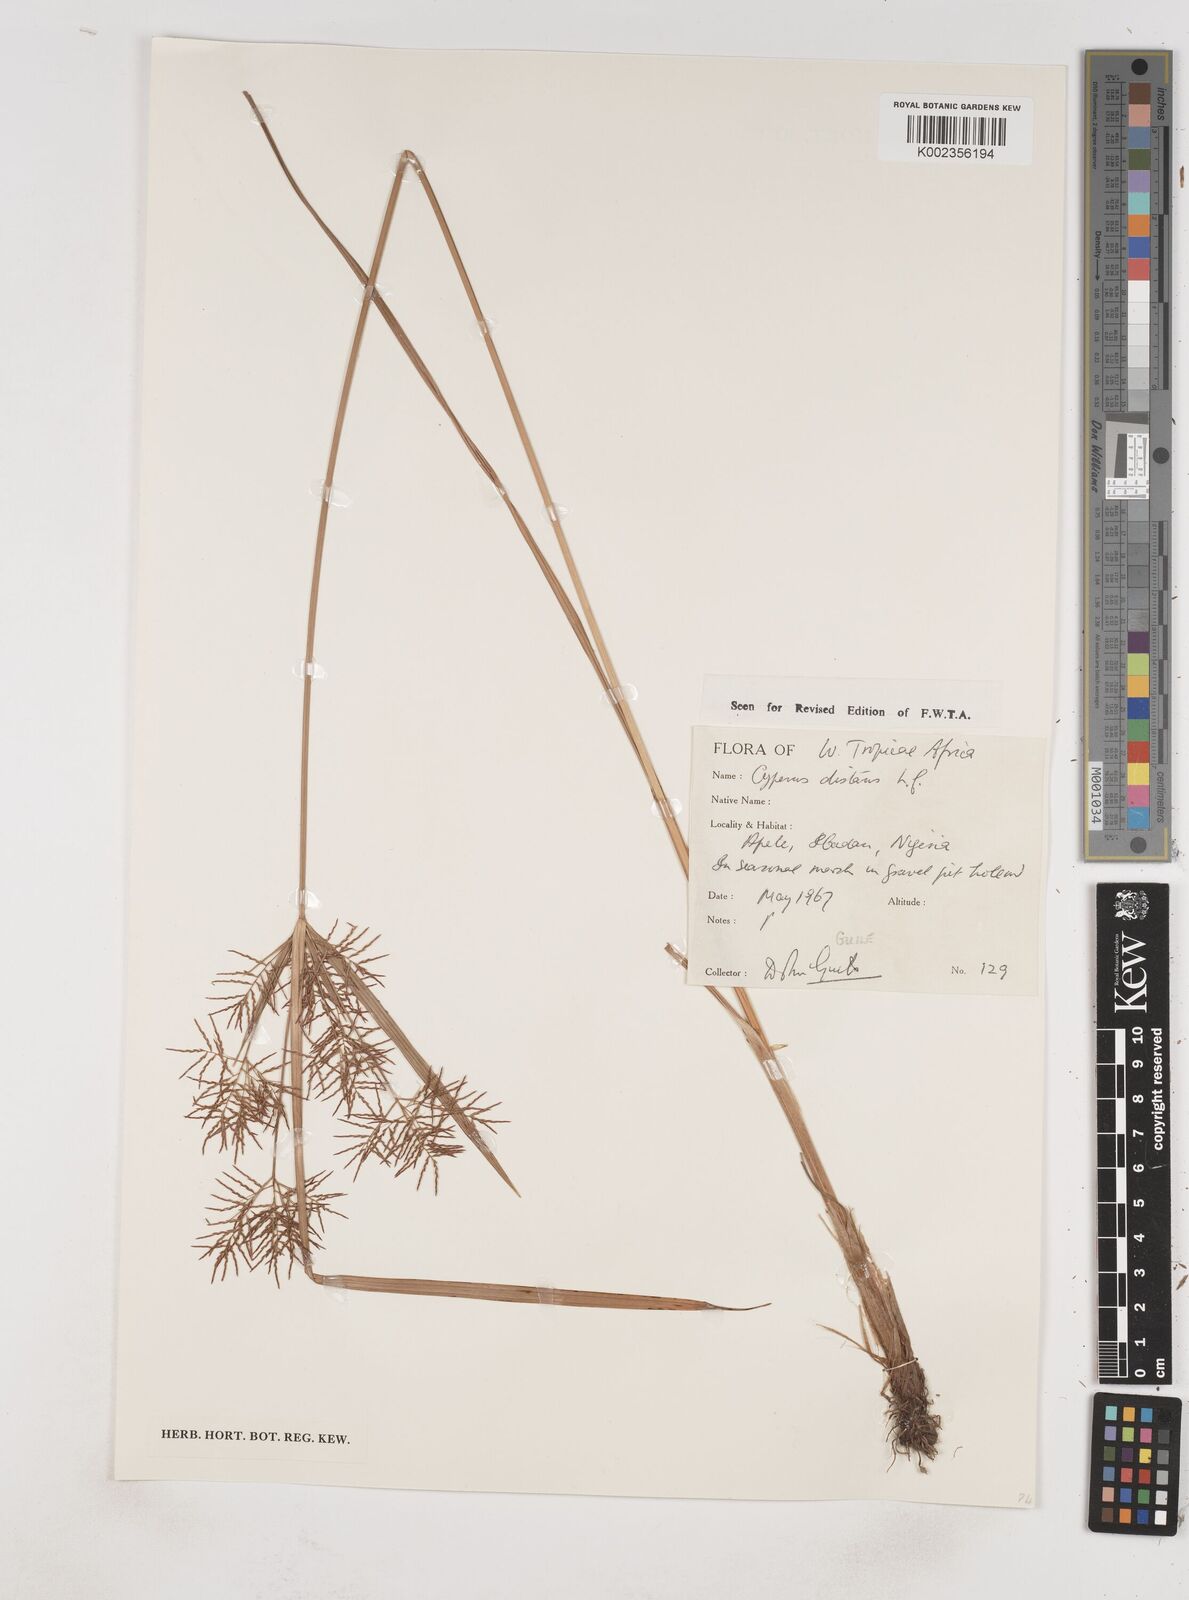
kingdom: Plantae
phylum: Tracheophyta
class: Liliopsida
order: Poales
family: Cyperaceae
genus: Cyperus
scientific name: Cyperus distans
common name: Slender cyperus
